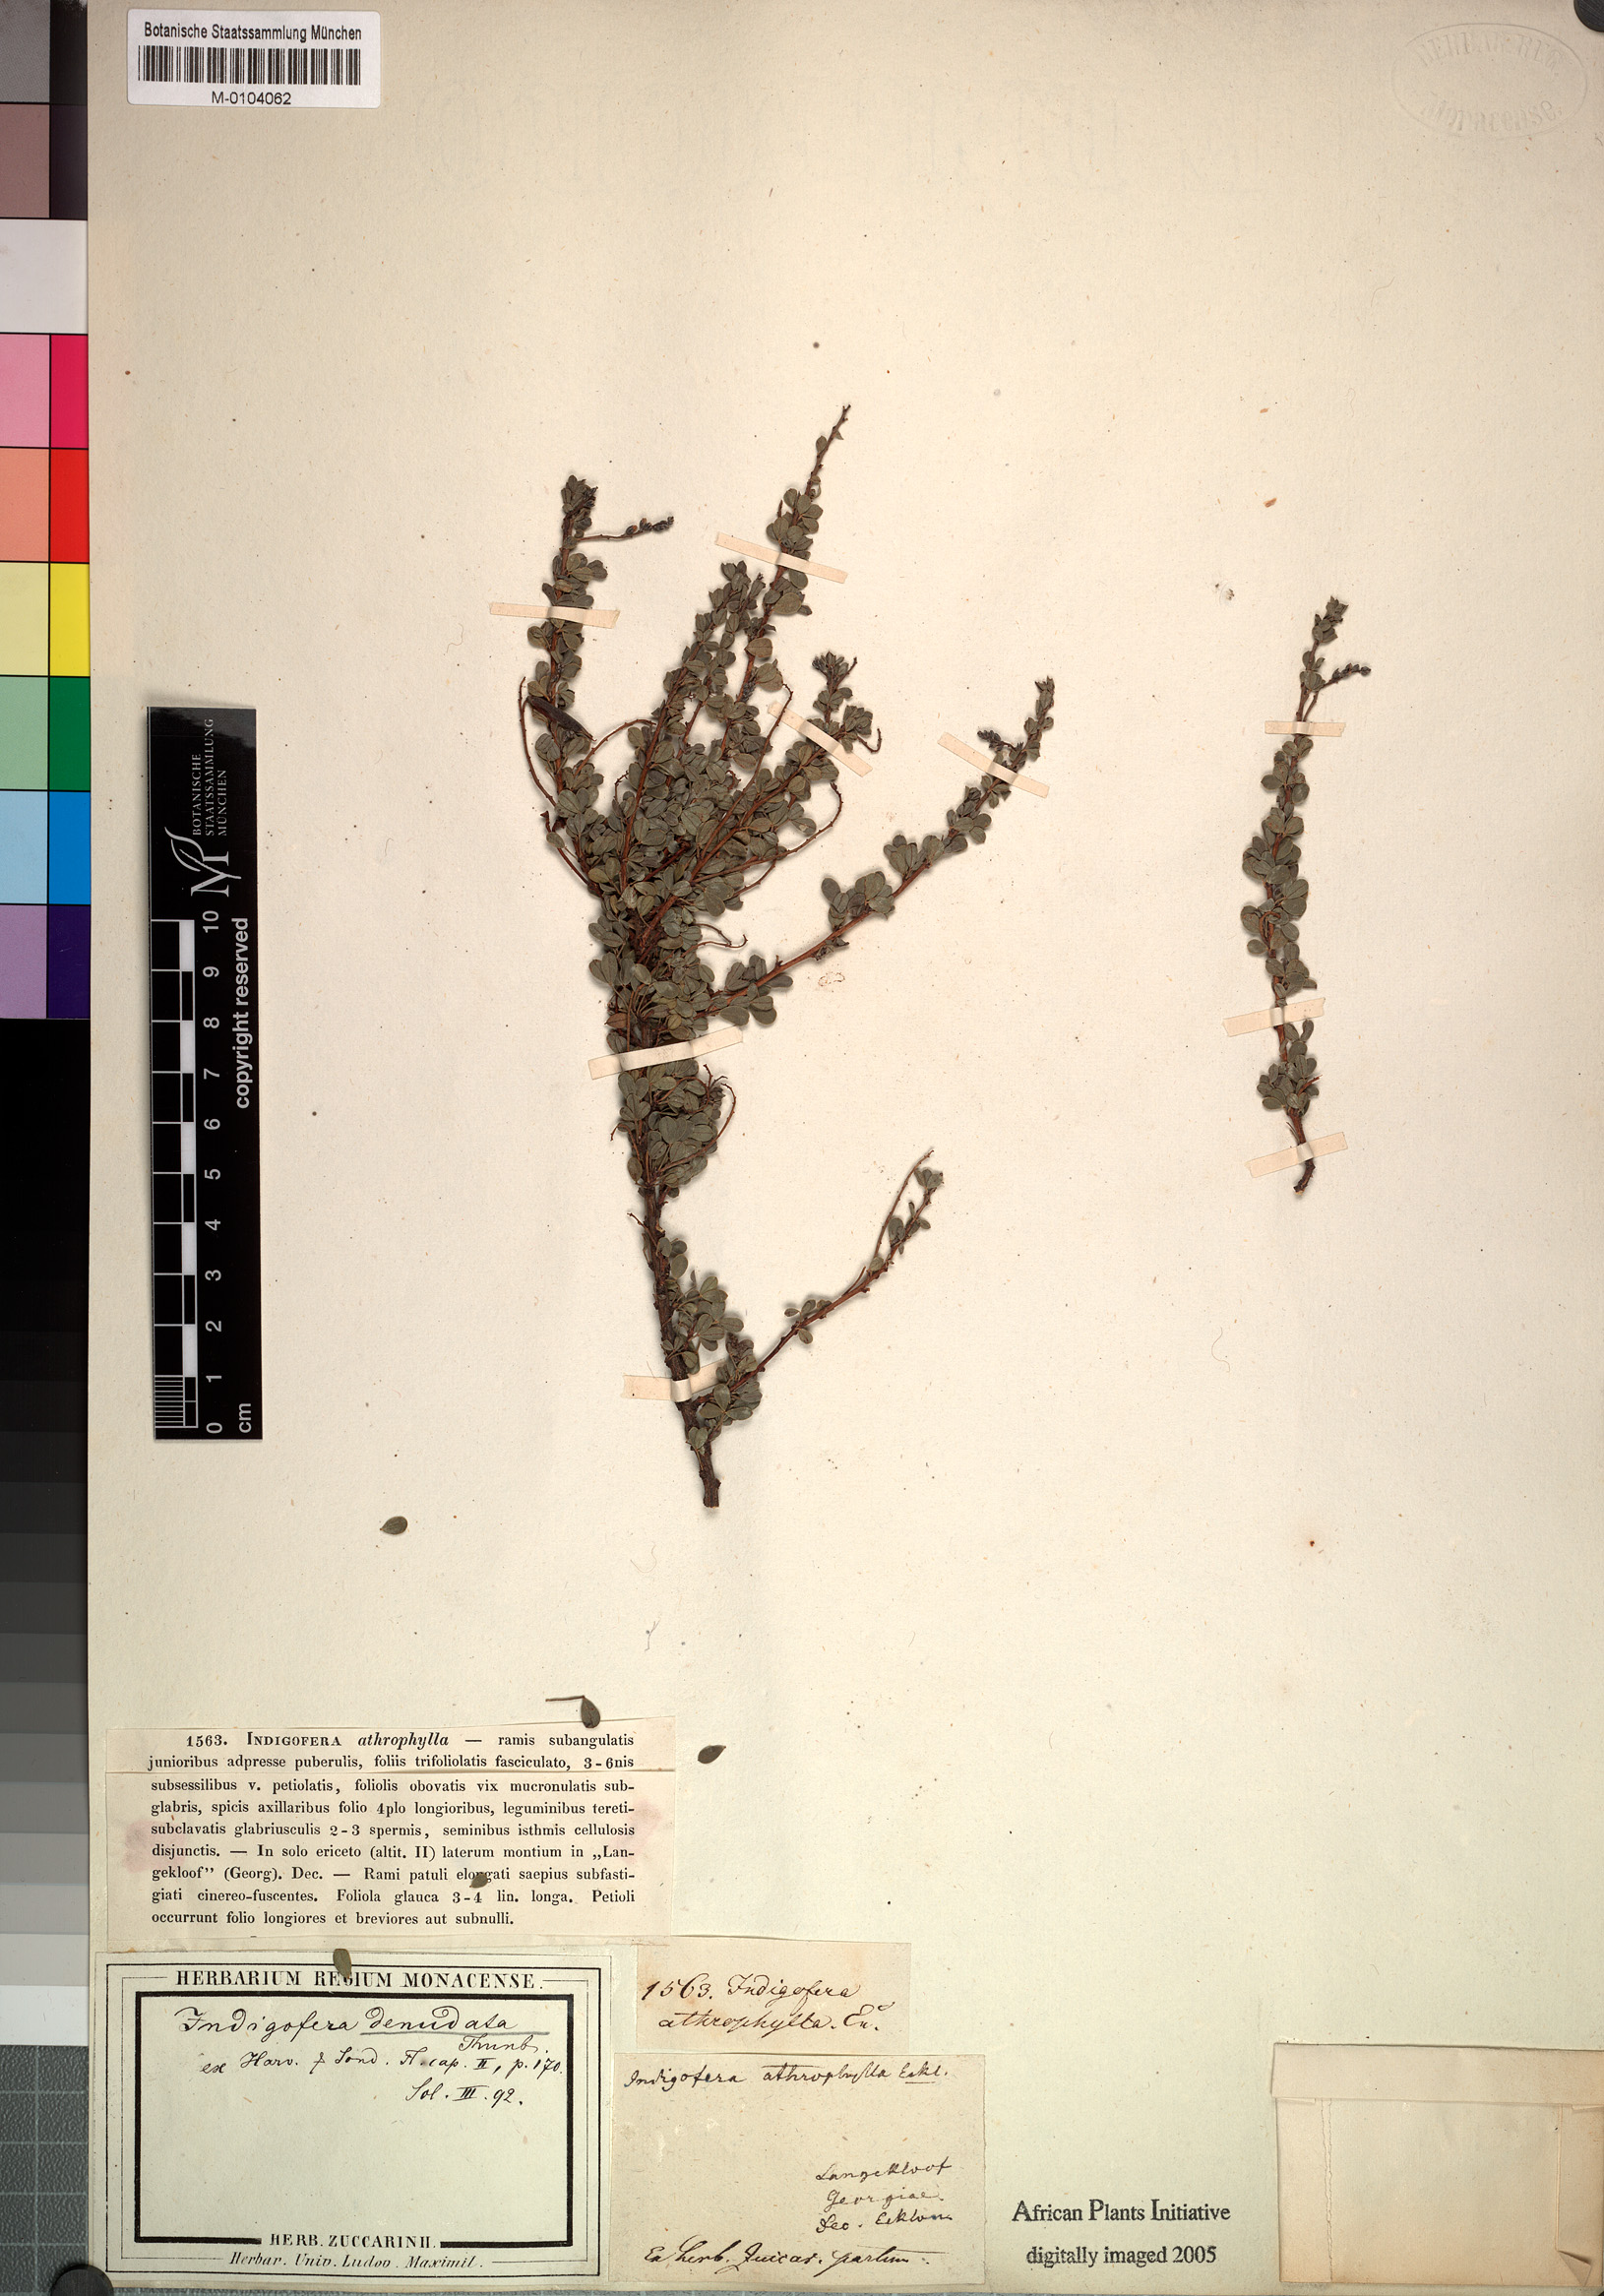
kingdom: Plantae
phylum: Tracheophyta
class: Magnoliopsida
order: Fabales
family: Fabaceae
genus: Indigofera
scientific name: Indigofera denudata
